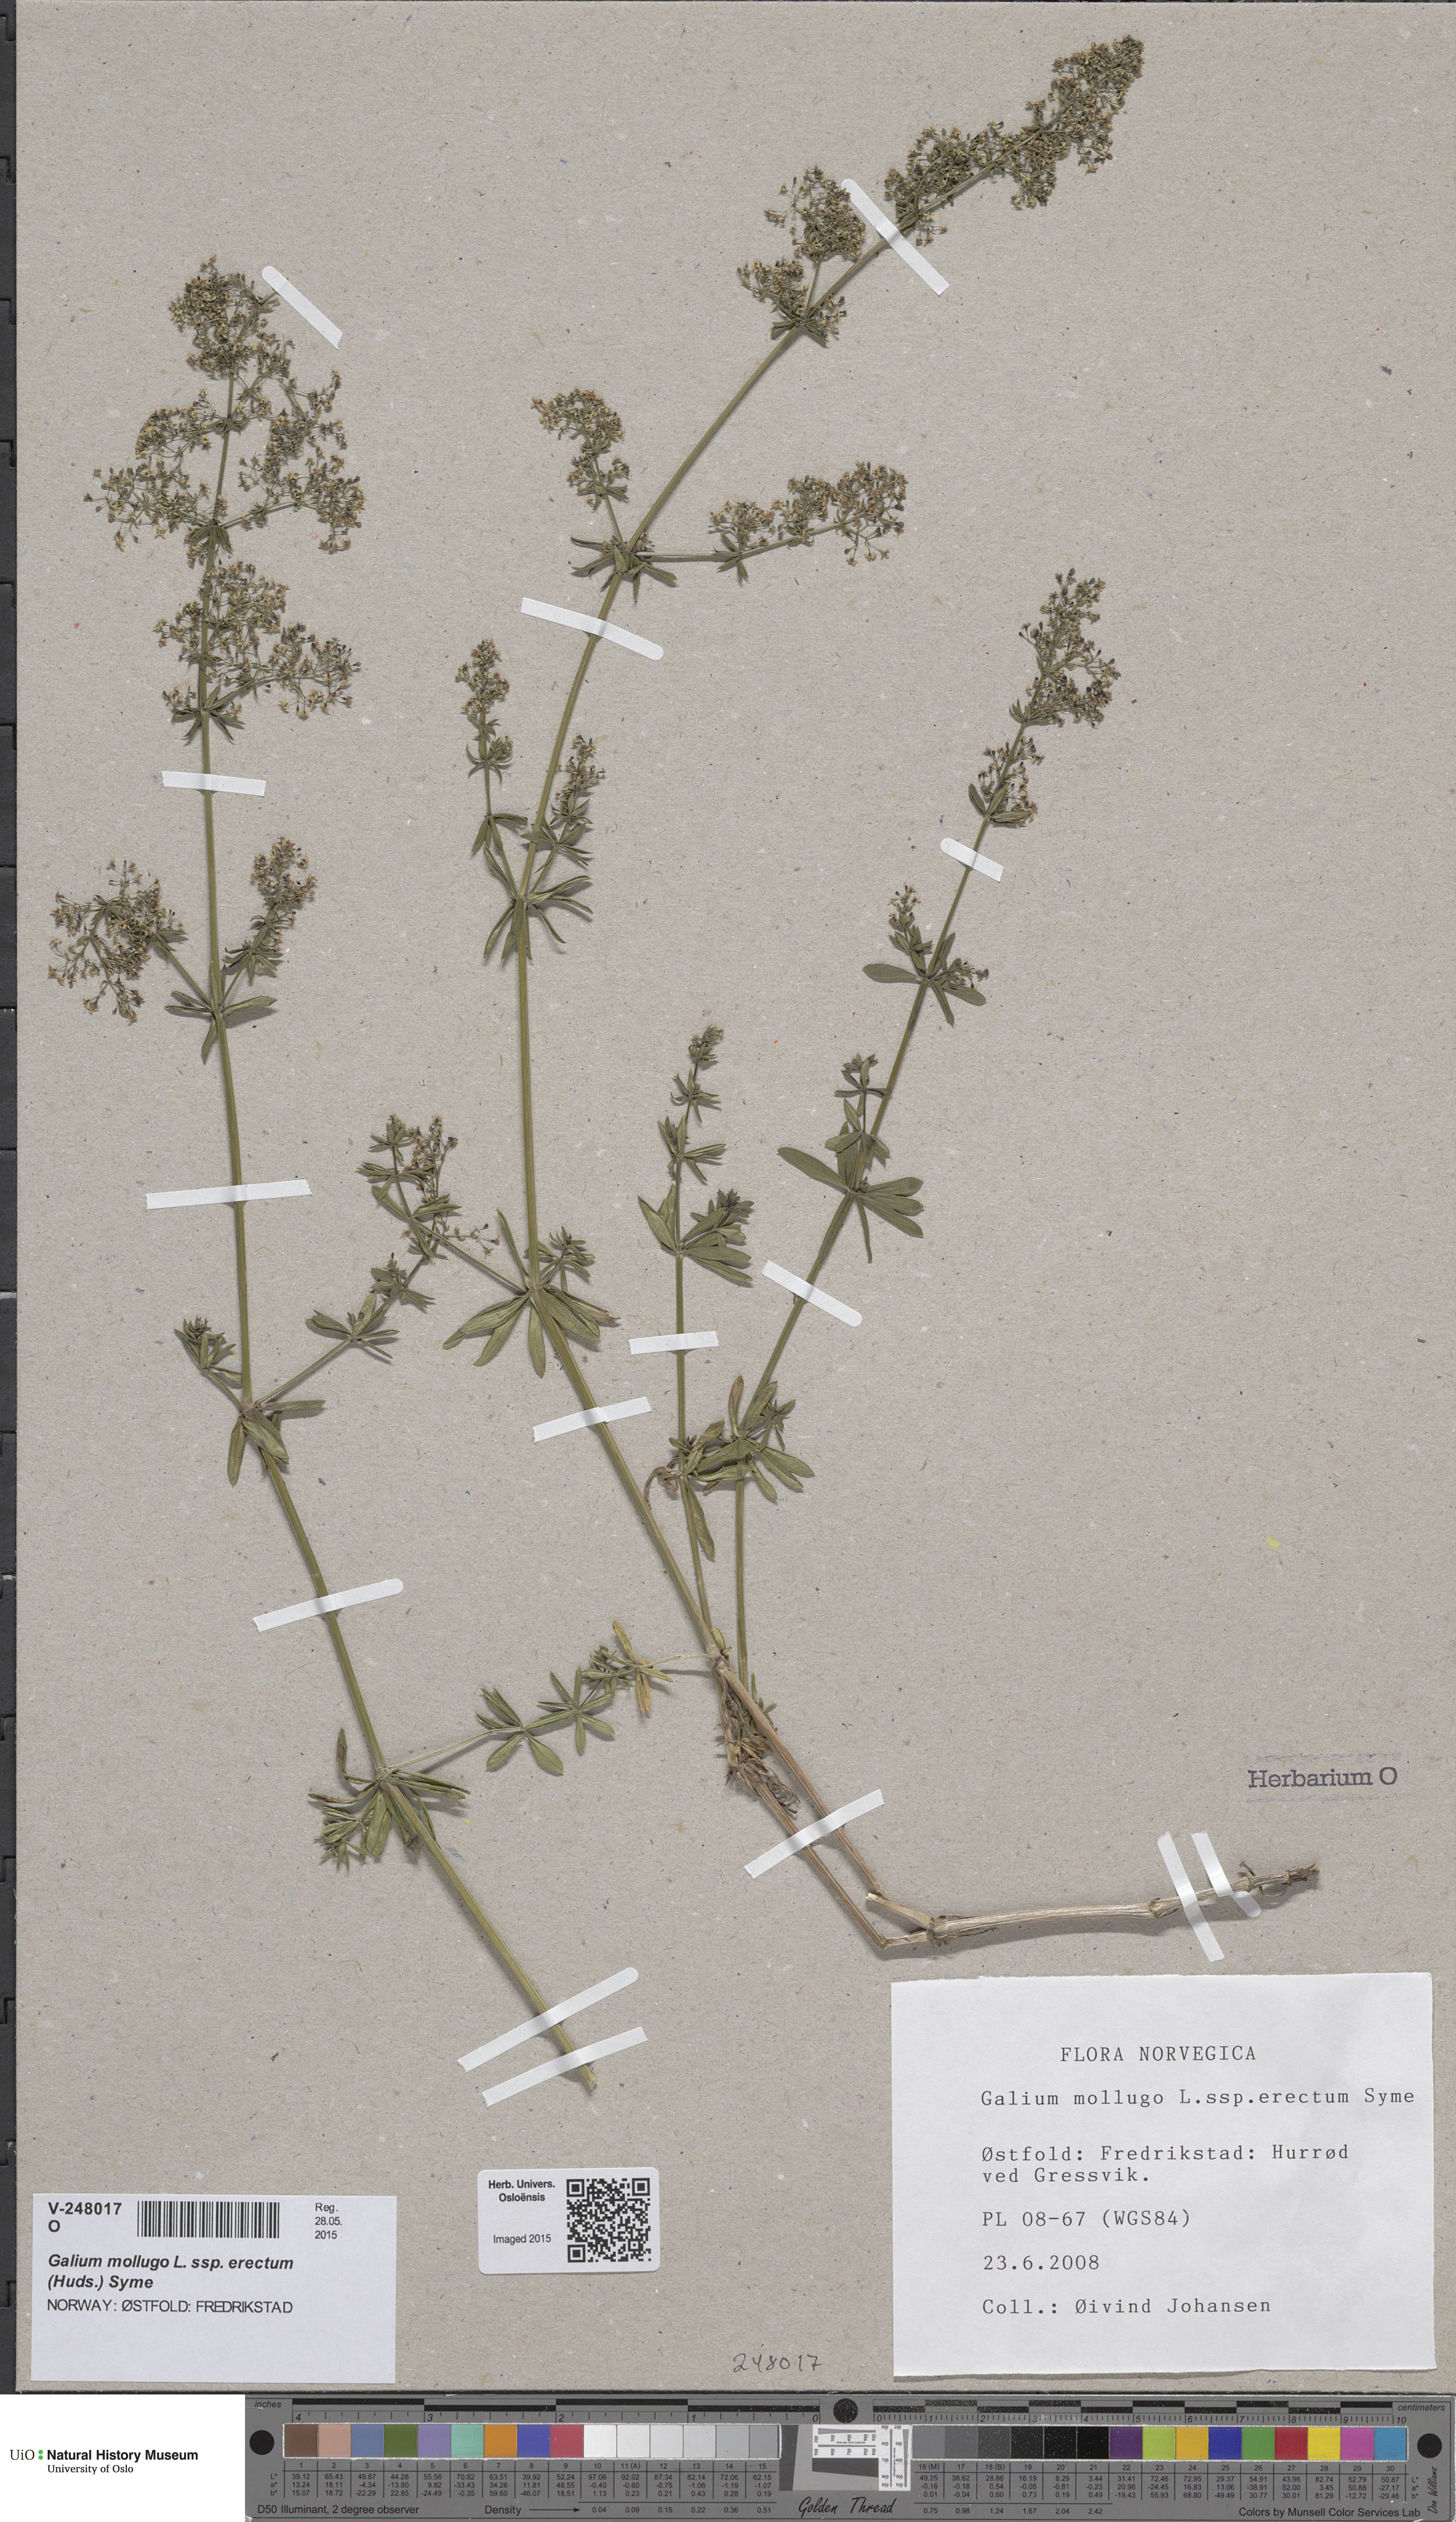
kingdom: Plantae
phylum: Tracheophyta
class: Magnoliopsida
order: Gentianales
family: Rubiaceae
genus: Galium
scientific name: Galium album
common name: White bedstraw
